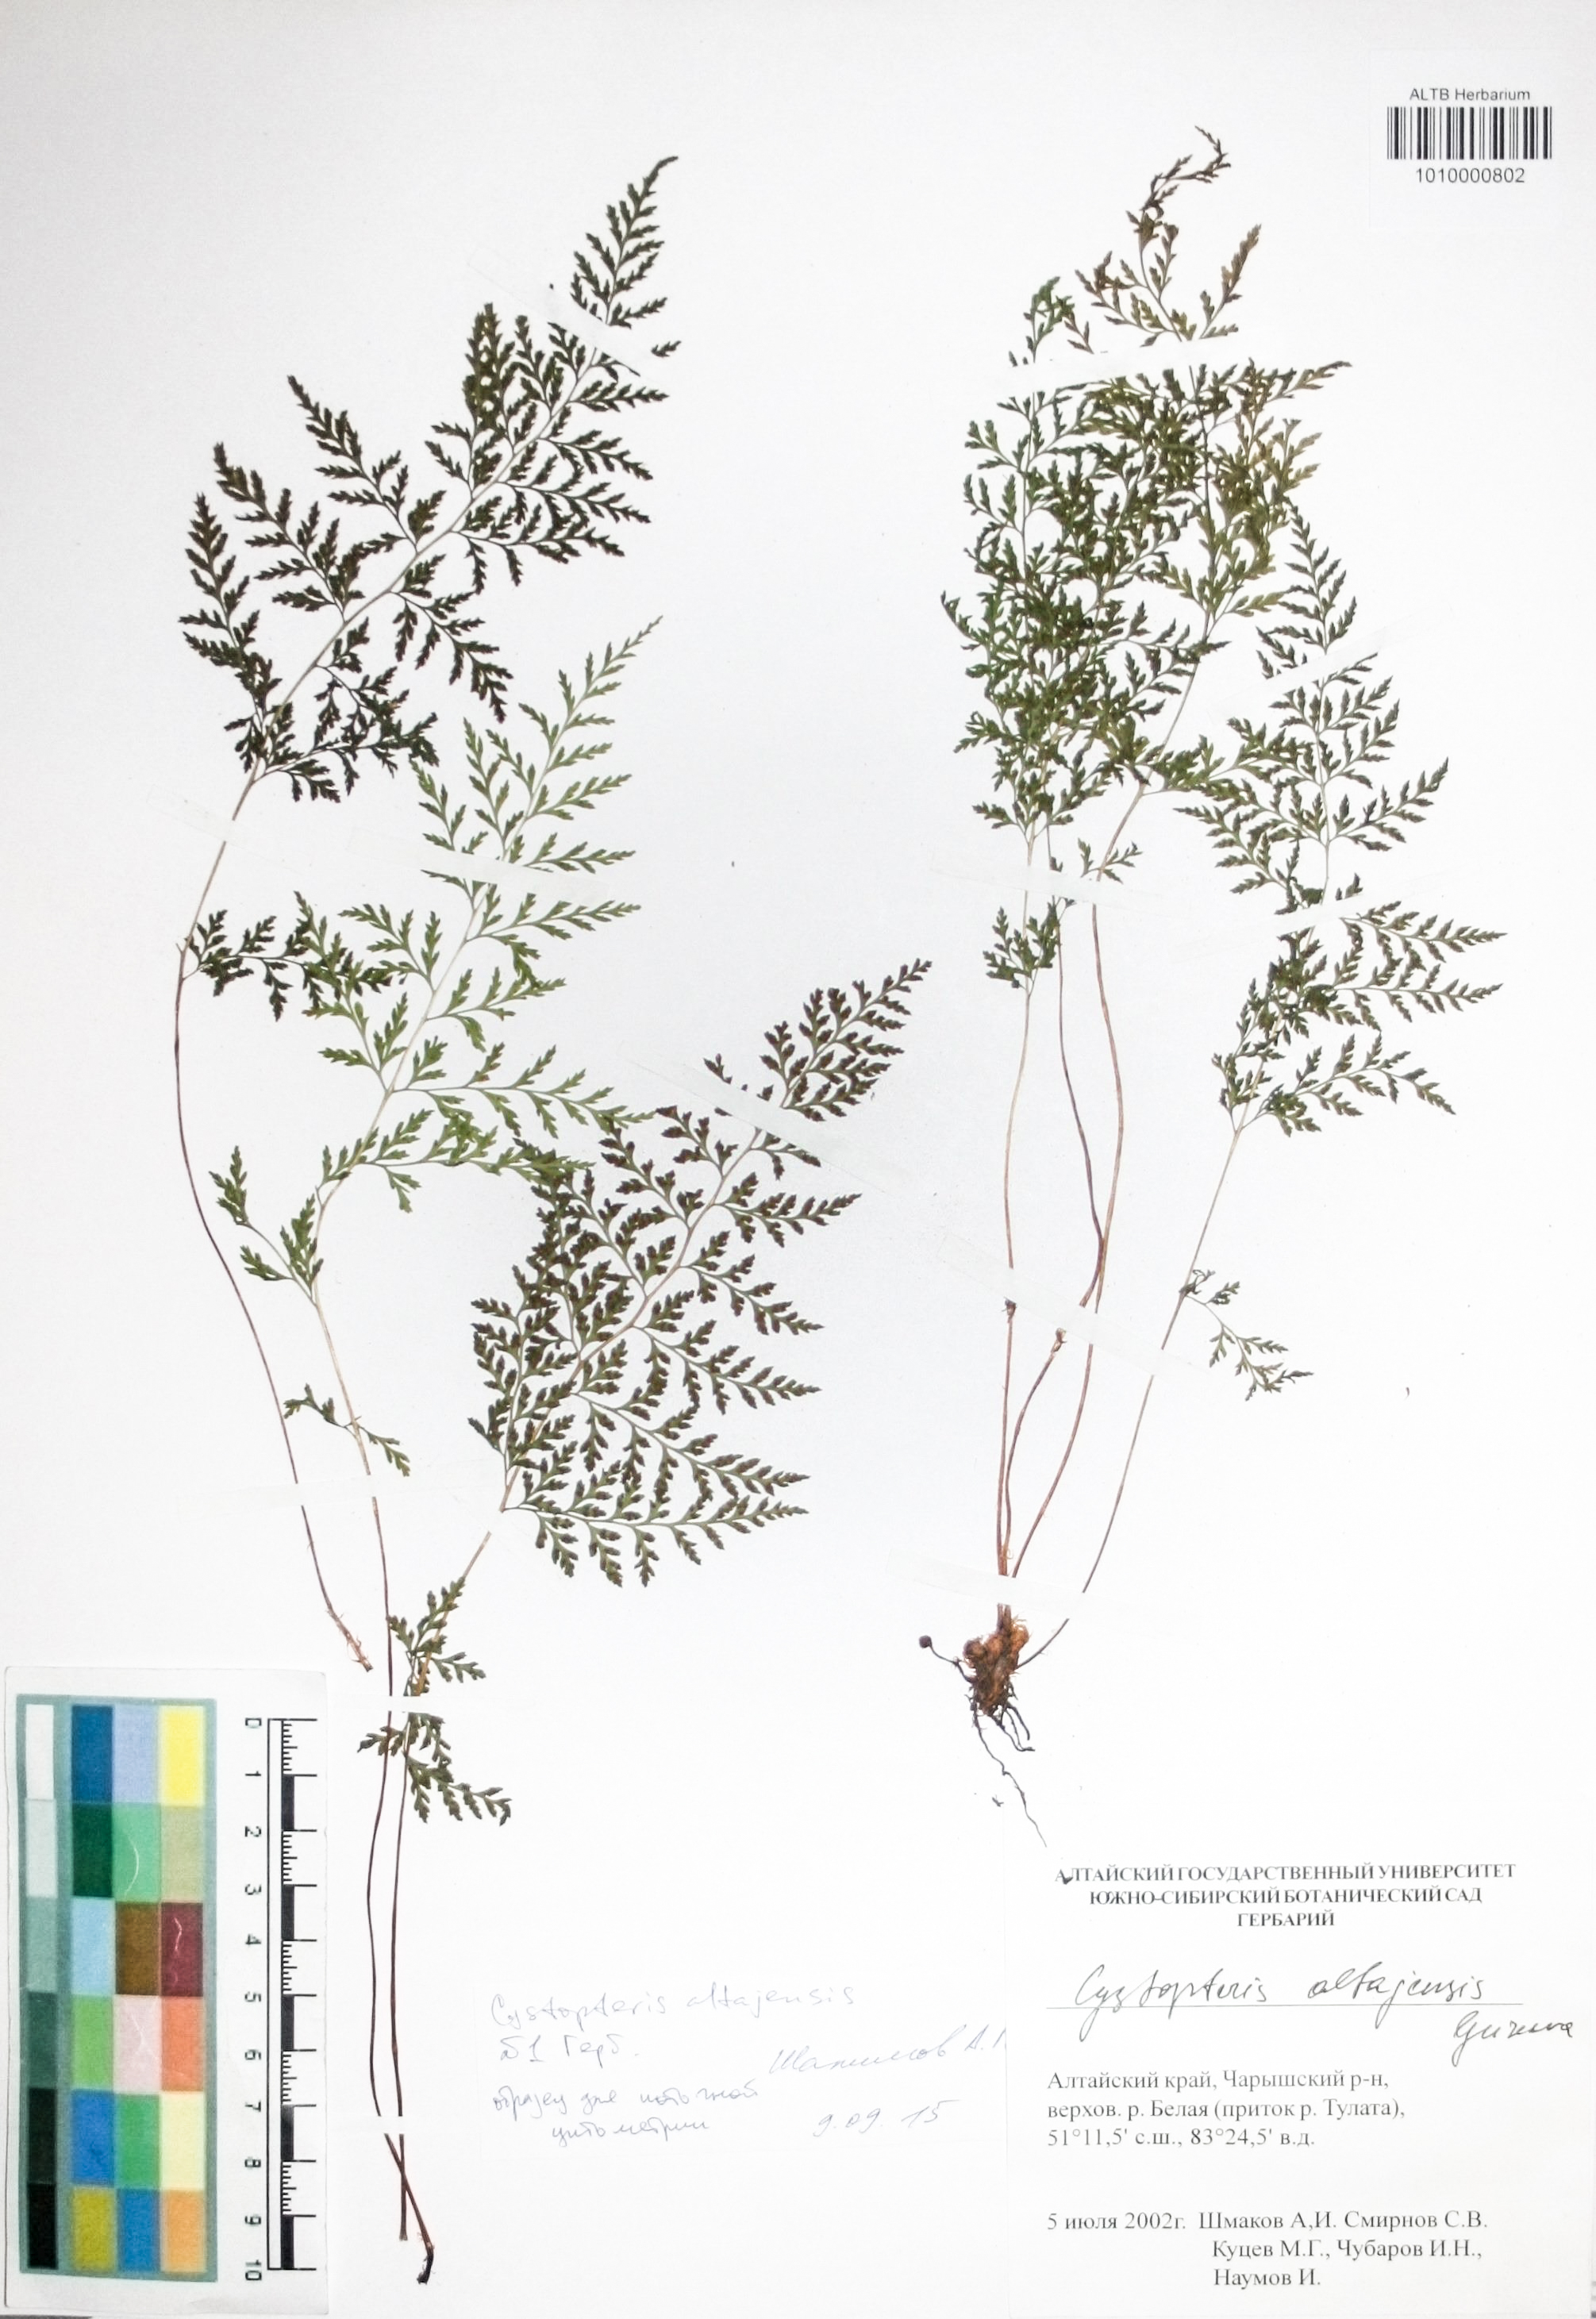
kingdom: Plantae
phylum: Tracheophyta
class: Polypodiopsida
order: Polypodiales
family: Cystopteridaceae
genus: Cystopteris
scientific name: Cystopteris diaphana
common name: Greenish bladder-fern
